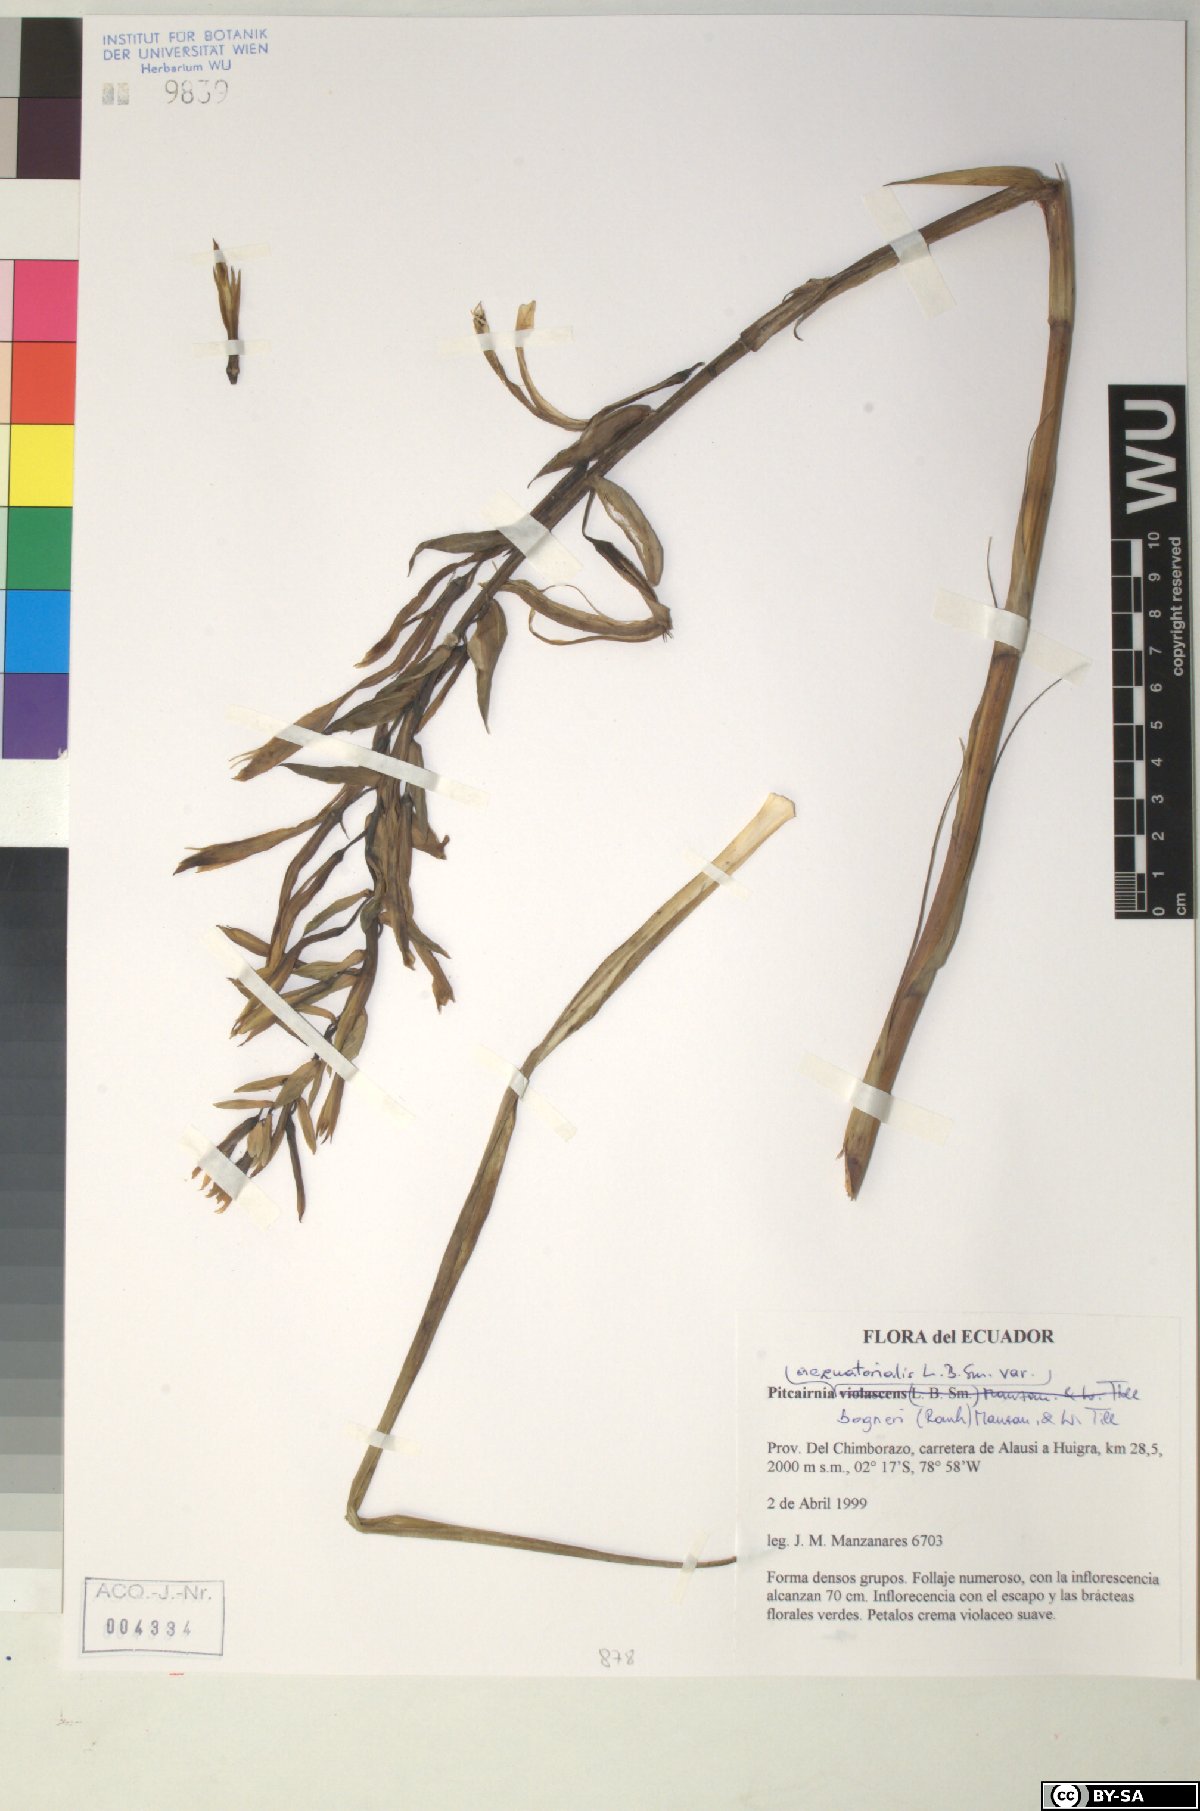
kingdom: Plantae
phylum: Tracheophyta
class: Liliopsida
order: Poales
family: Bromeliaceae
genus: Pitcairnia
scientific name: Pitcairnia
